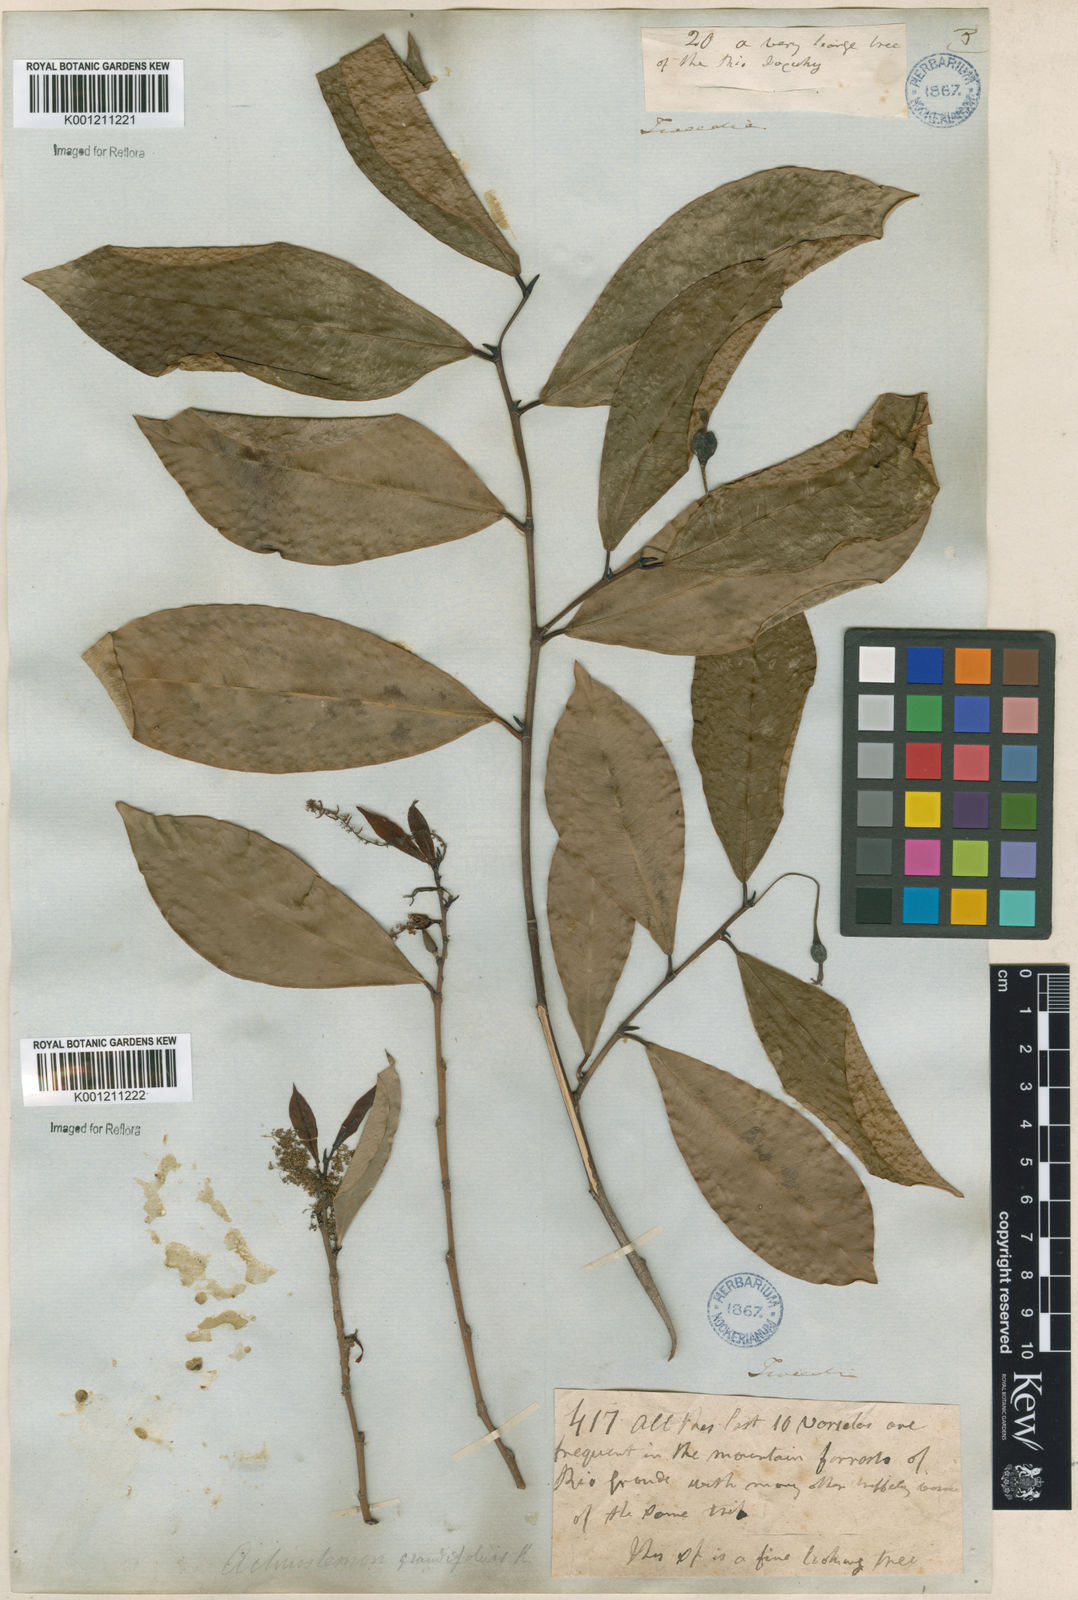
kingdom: Plantae
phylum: Tracheophyta
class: Magnoliopsida
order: Malpighiales
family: Euphorbiaceae
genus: Actinostemon
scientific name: Actinostemon
